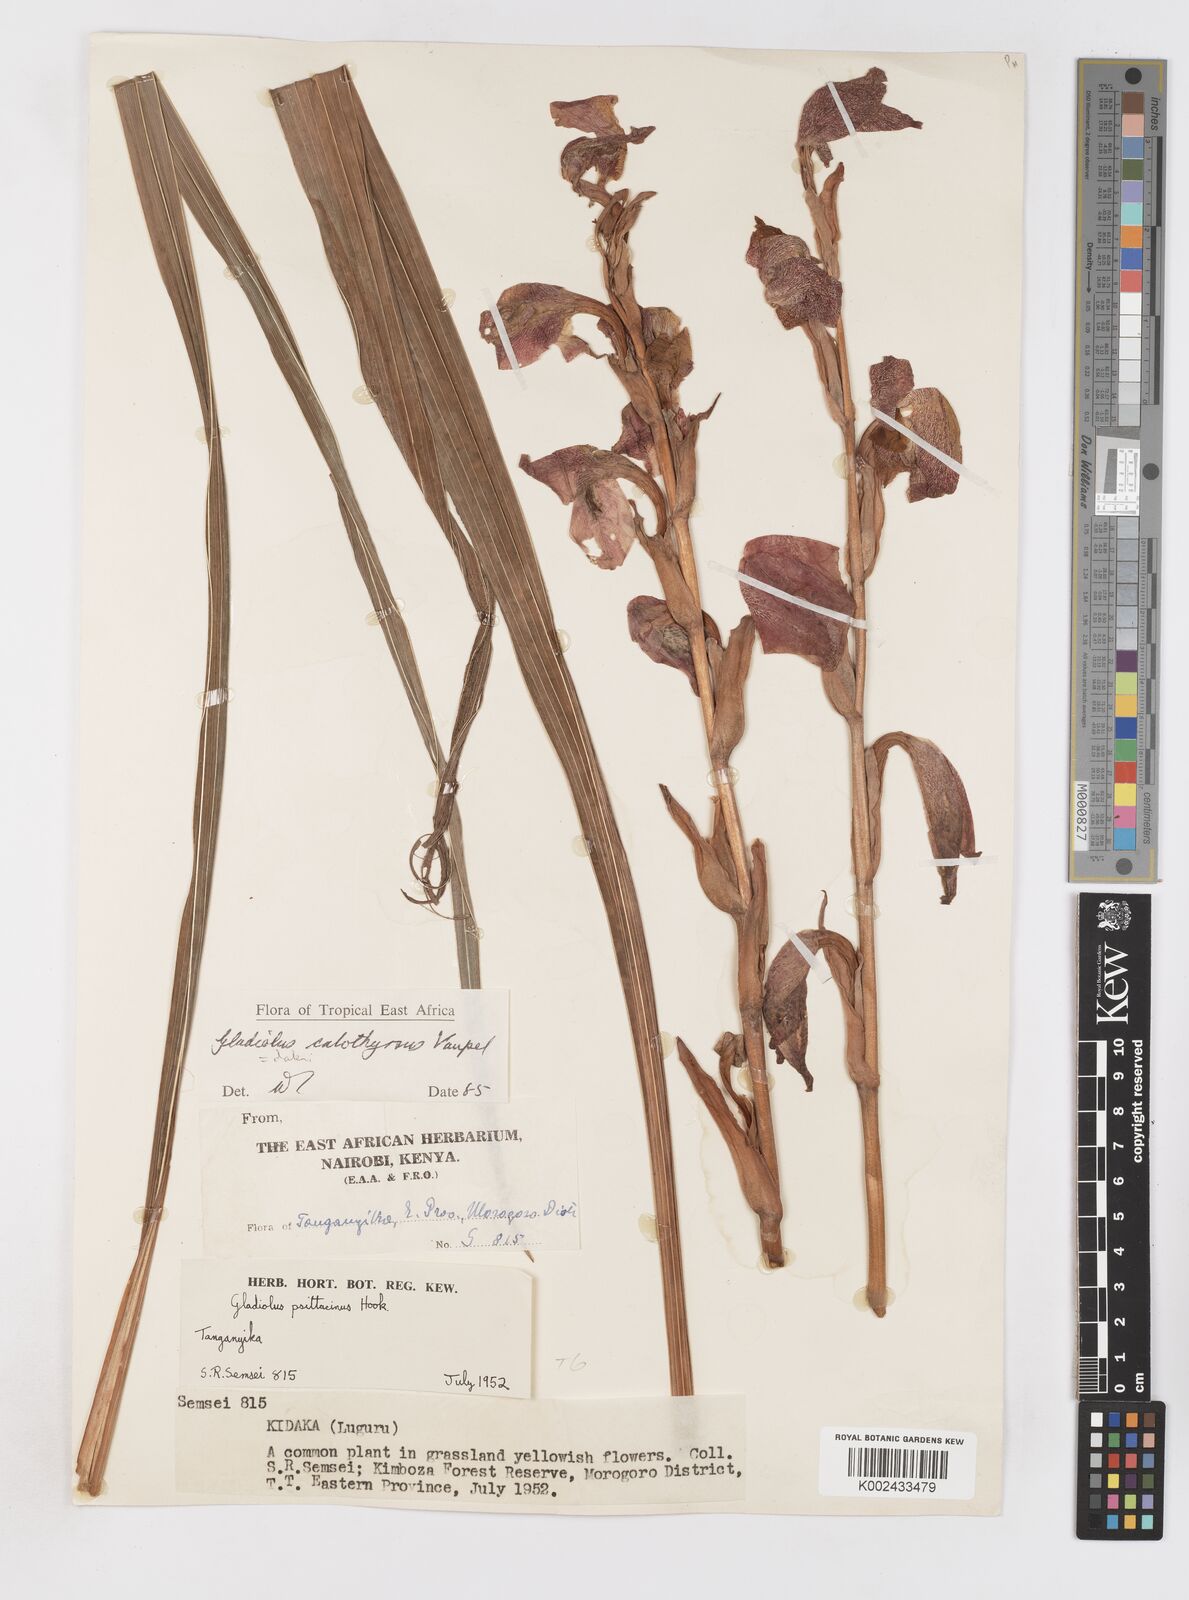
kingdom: Plantae
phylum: Tracheophyta
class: Liliopsida
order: Asparagales
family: Iridaceae
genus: Gladiolus
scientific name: Gladiolus dalenii
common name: Cornflag
